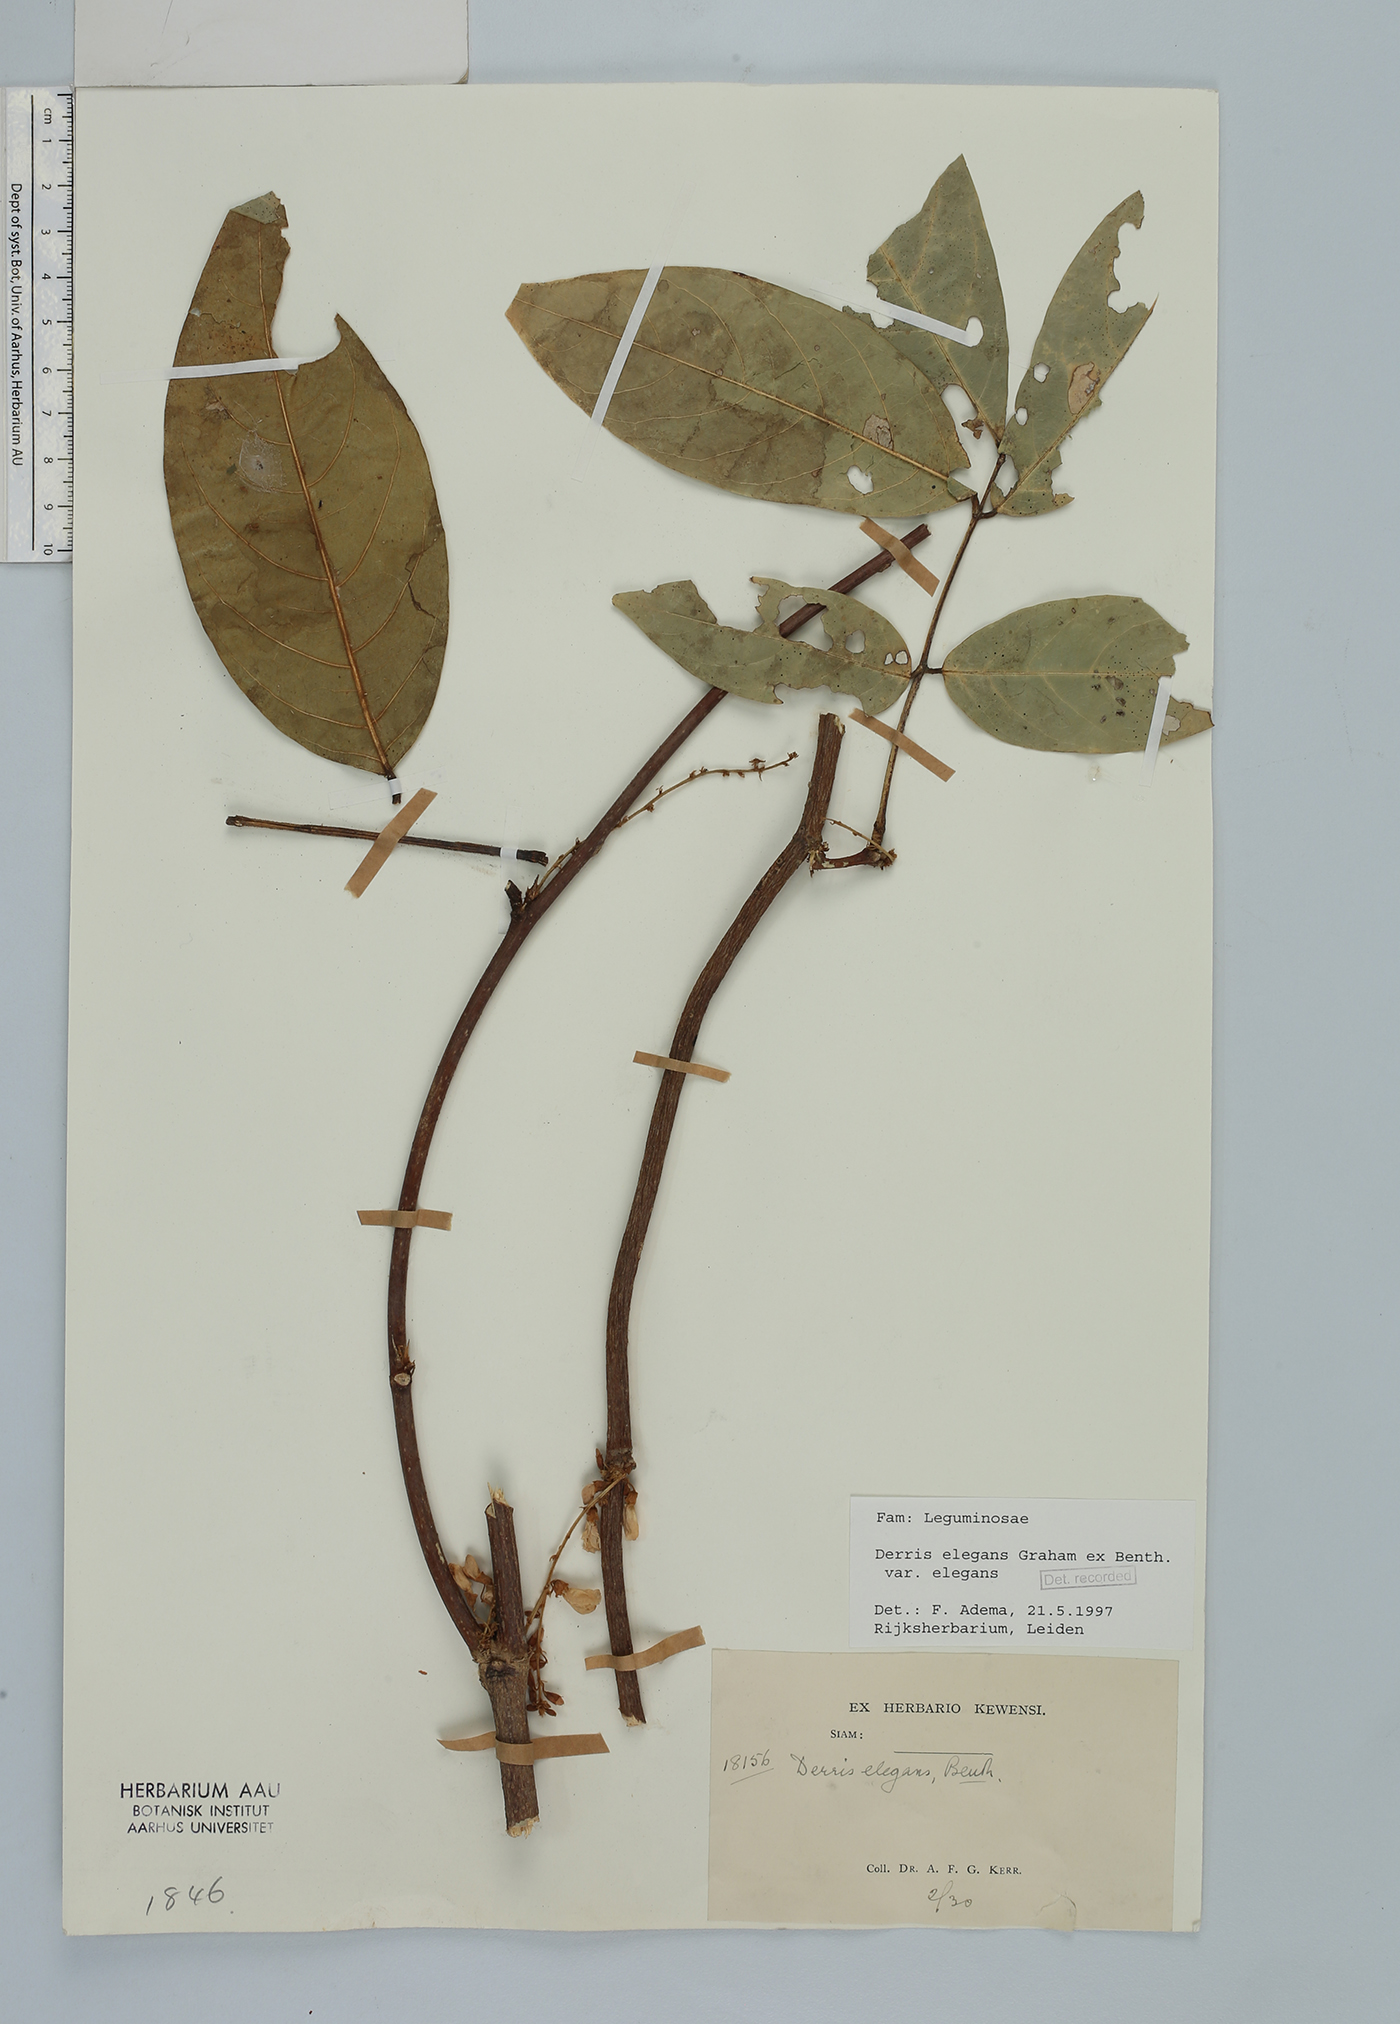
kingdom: Plantae
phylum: Tracheophyta
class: Magnoliopsida
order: Fabales
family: Fabaceae
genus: Derris
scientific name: Derris elegans
